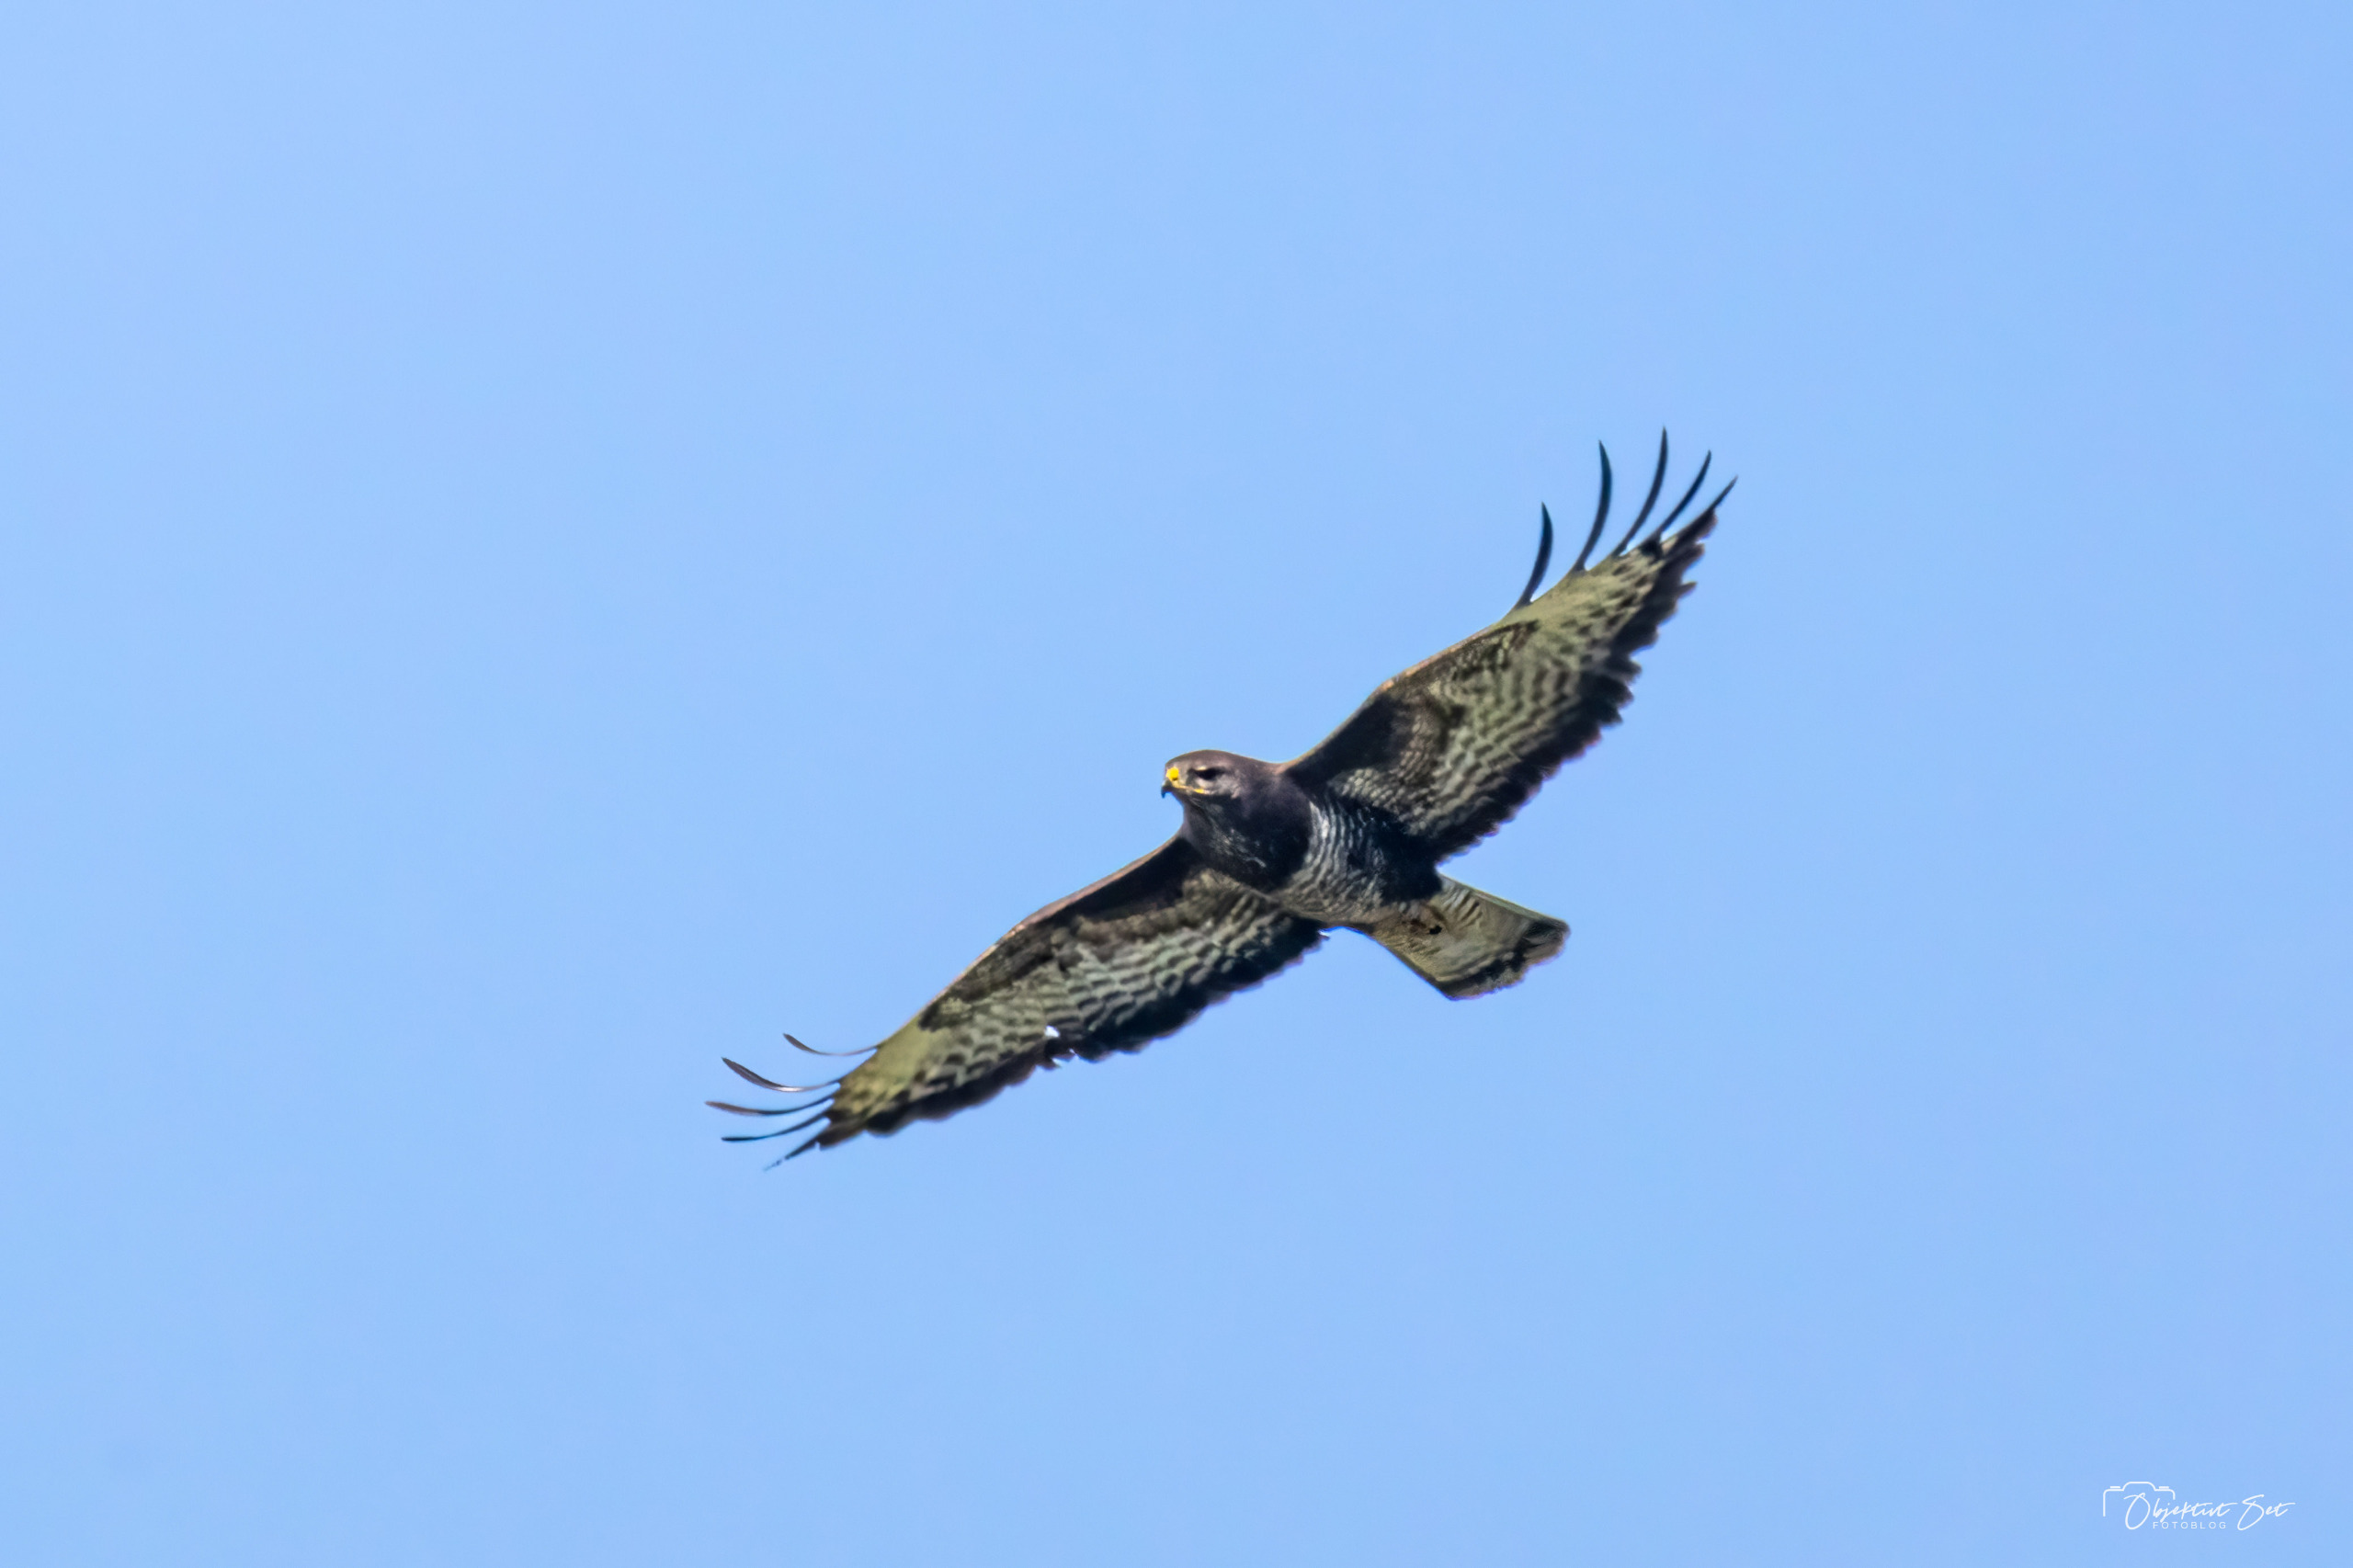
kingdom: Animalia
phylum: Chordata
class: Aves
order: Accipitriformes
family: Accipitridae
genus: Buteo
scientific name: Buteo buteo
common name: Musvåge
